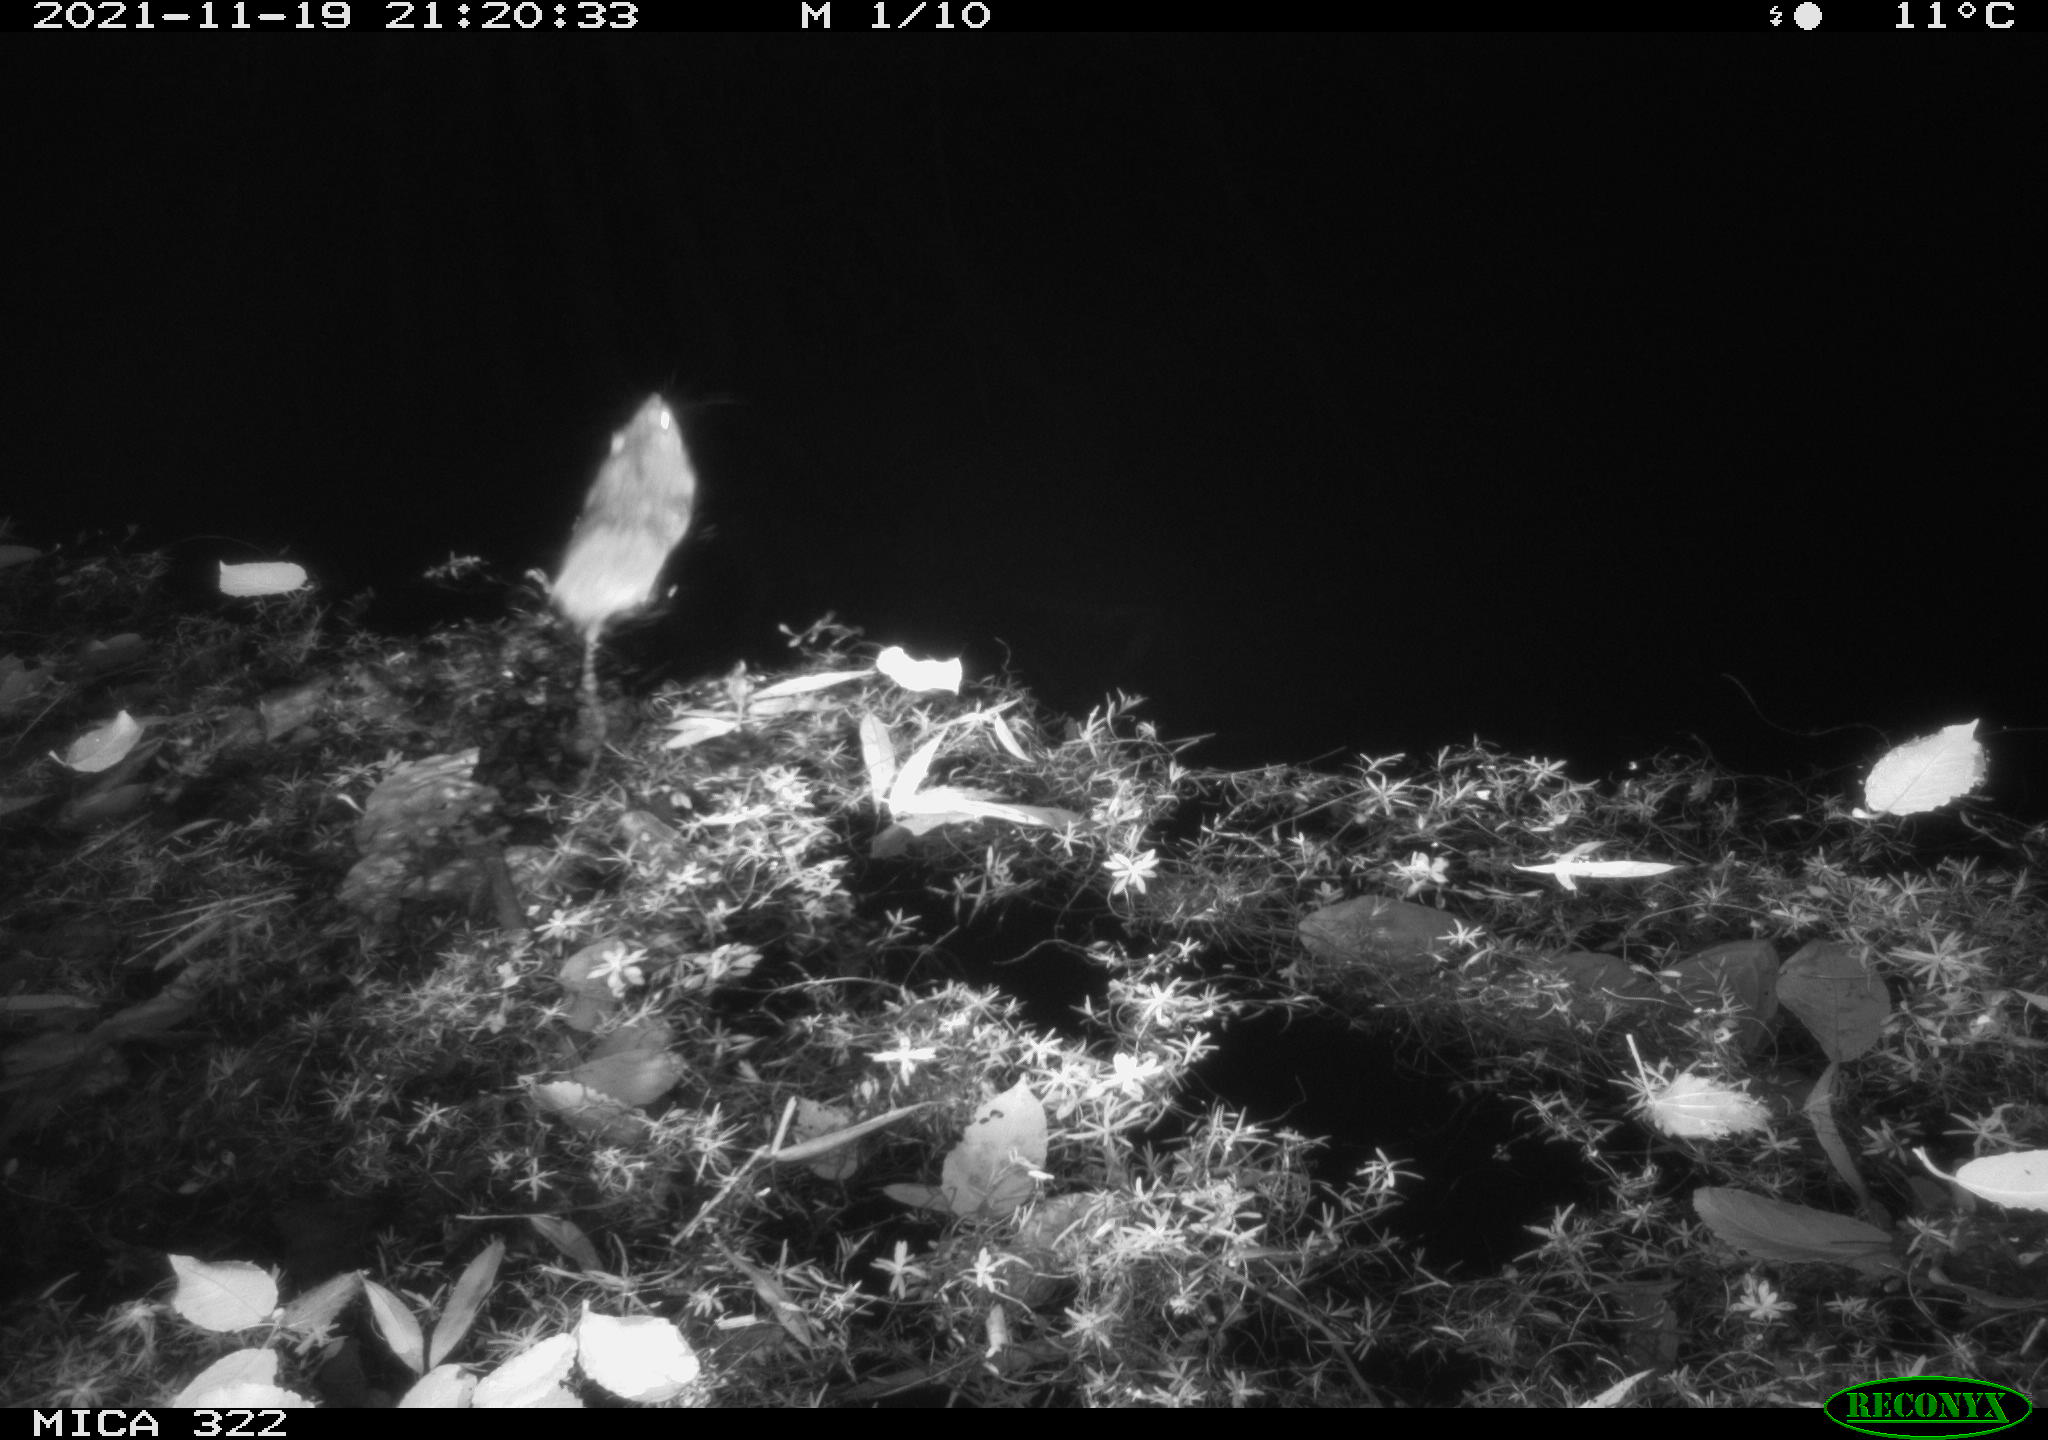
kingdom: Animalia
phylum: Chordata
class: Mammalia
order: Rodentia
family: Muridae
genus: Rattus
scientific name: Rattus norvegicus
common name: Brown rat
